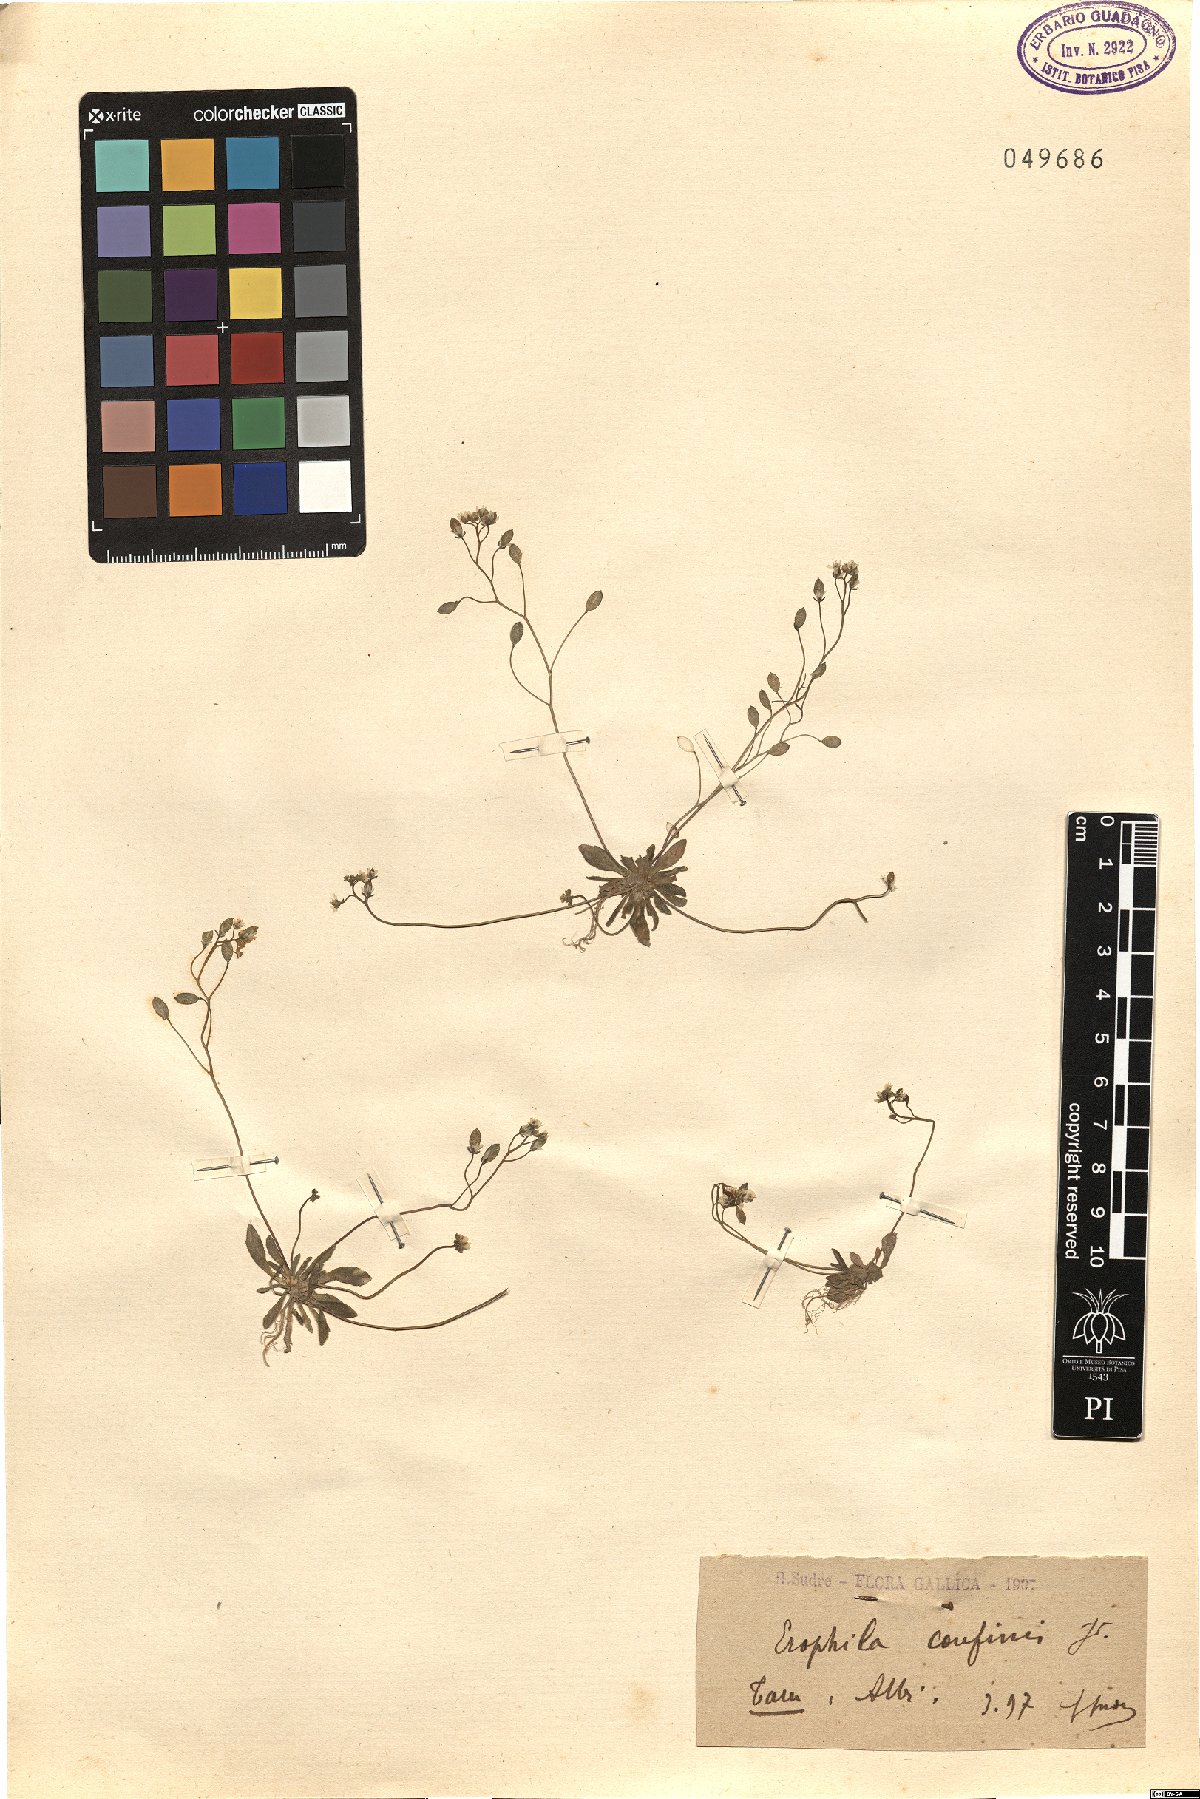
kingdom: Plantae
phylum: Tracheophyta
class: Magnoliopsida
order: Brassicales
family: Brassicaceae
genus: Draba
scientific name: Draba verna
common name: Spring draba
